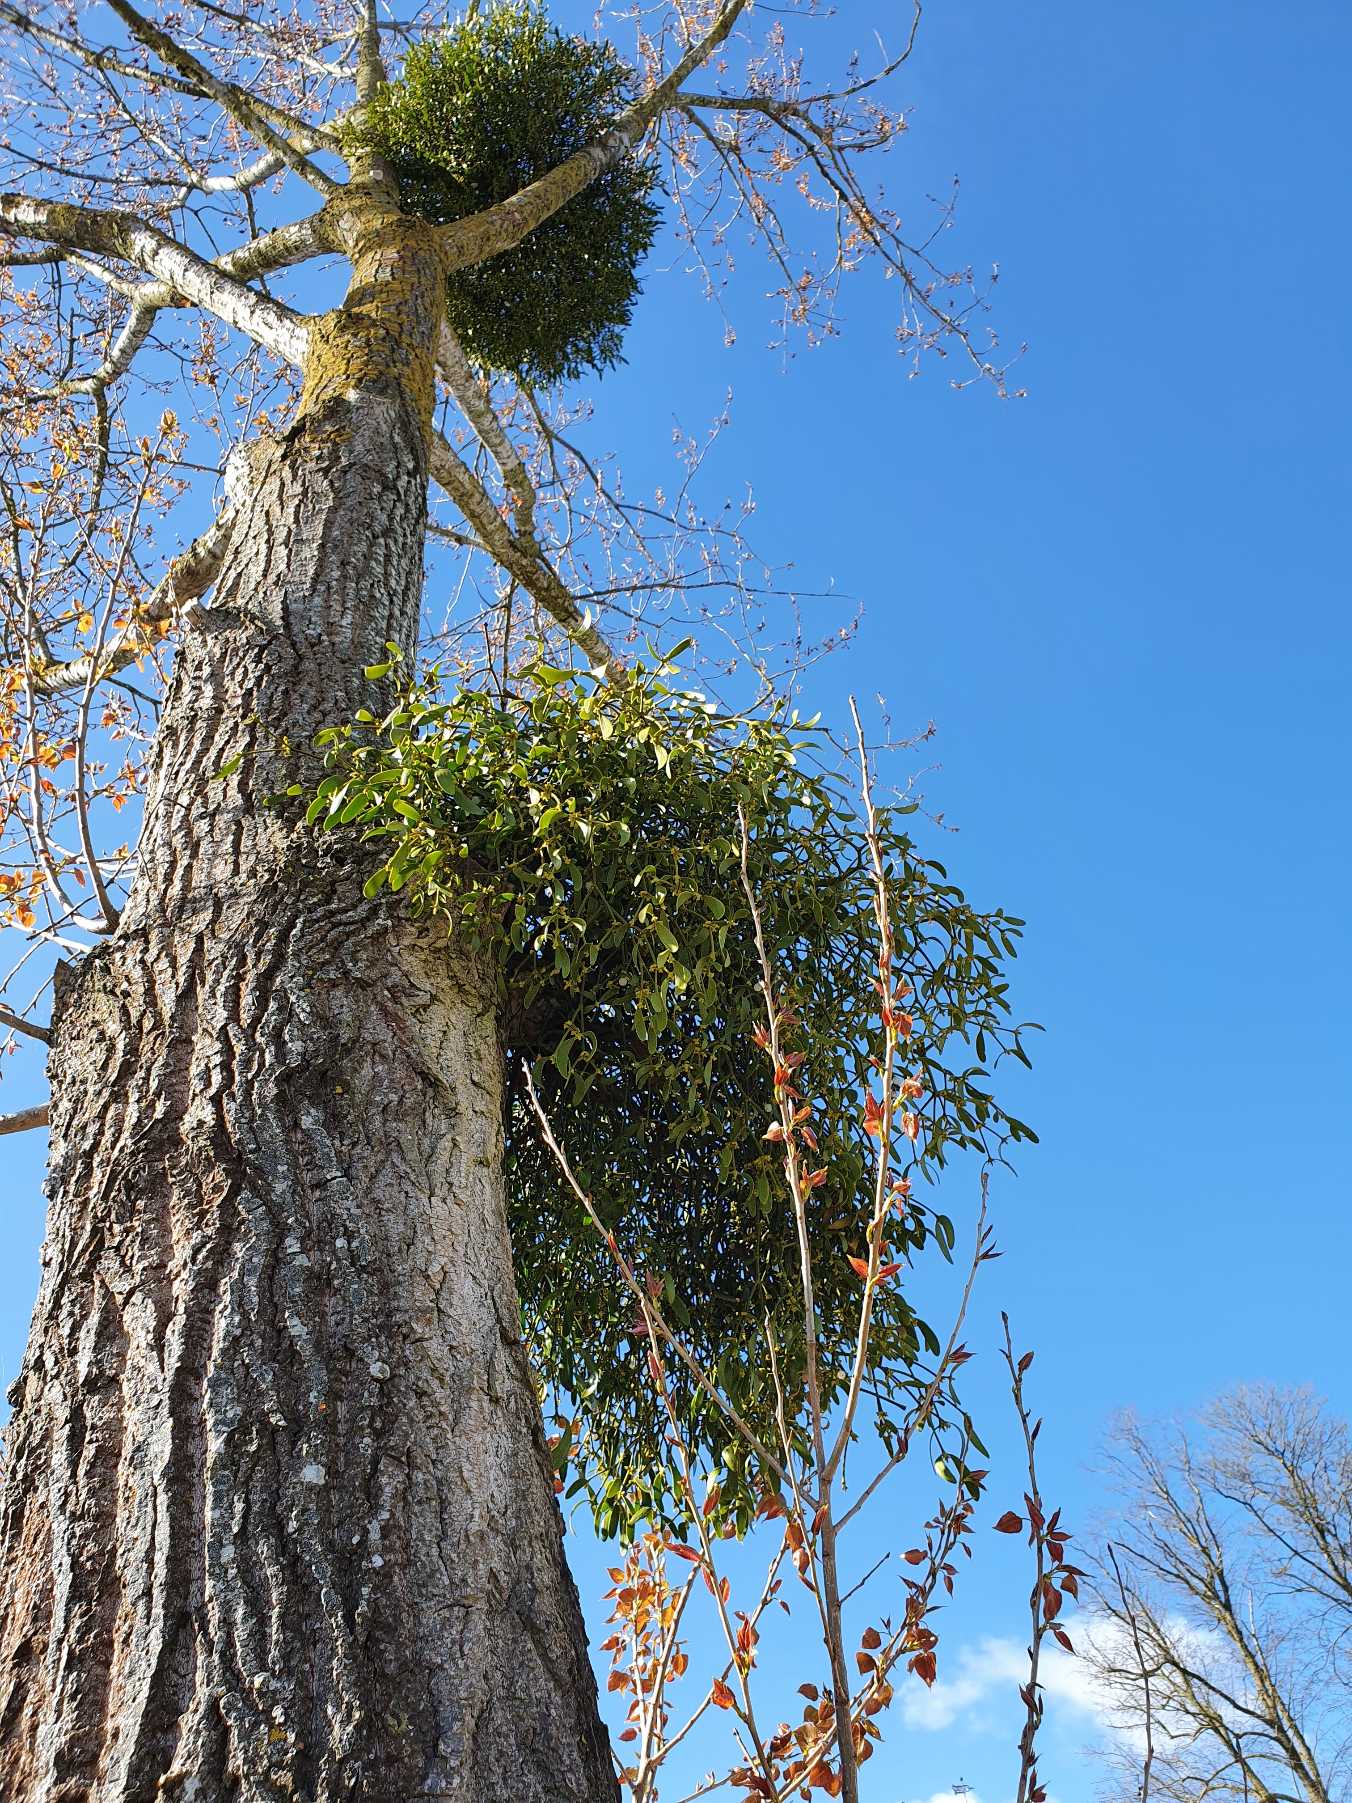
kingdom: Plantae
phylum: Tracheophyta
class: Magnoliopsida
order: Santalales
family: Viscaceae
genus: Viscum
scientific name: Viscum album
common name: Mistelten
